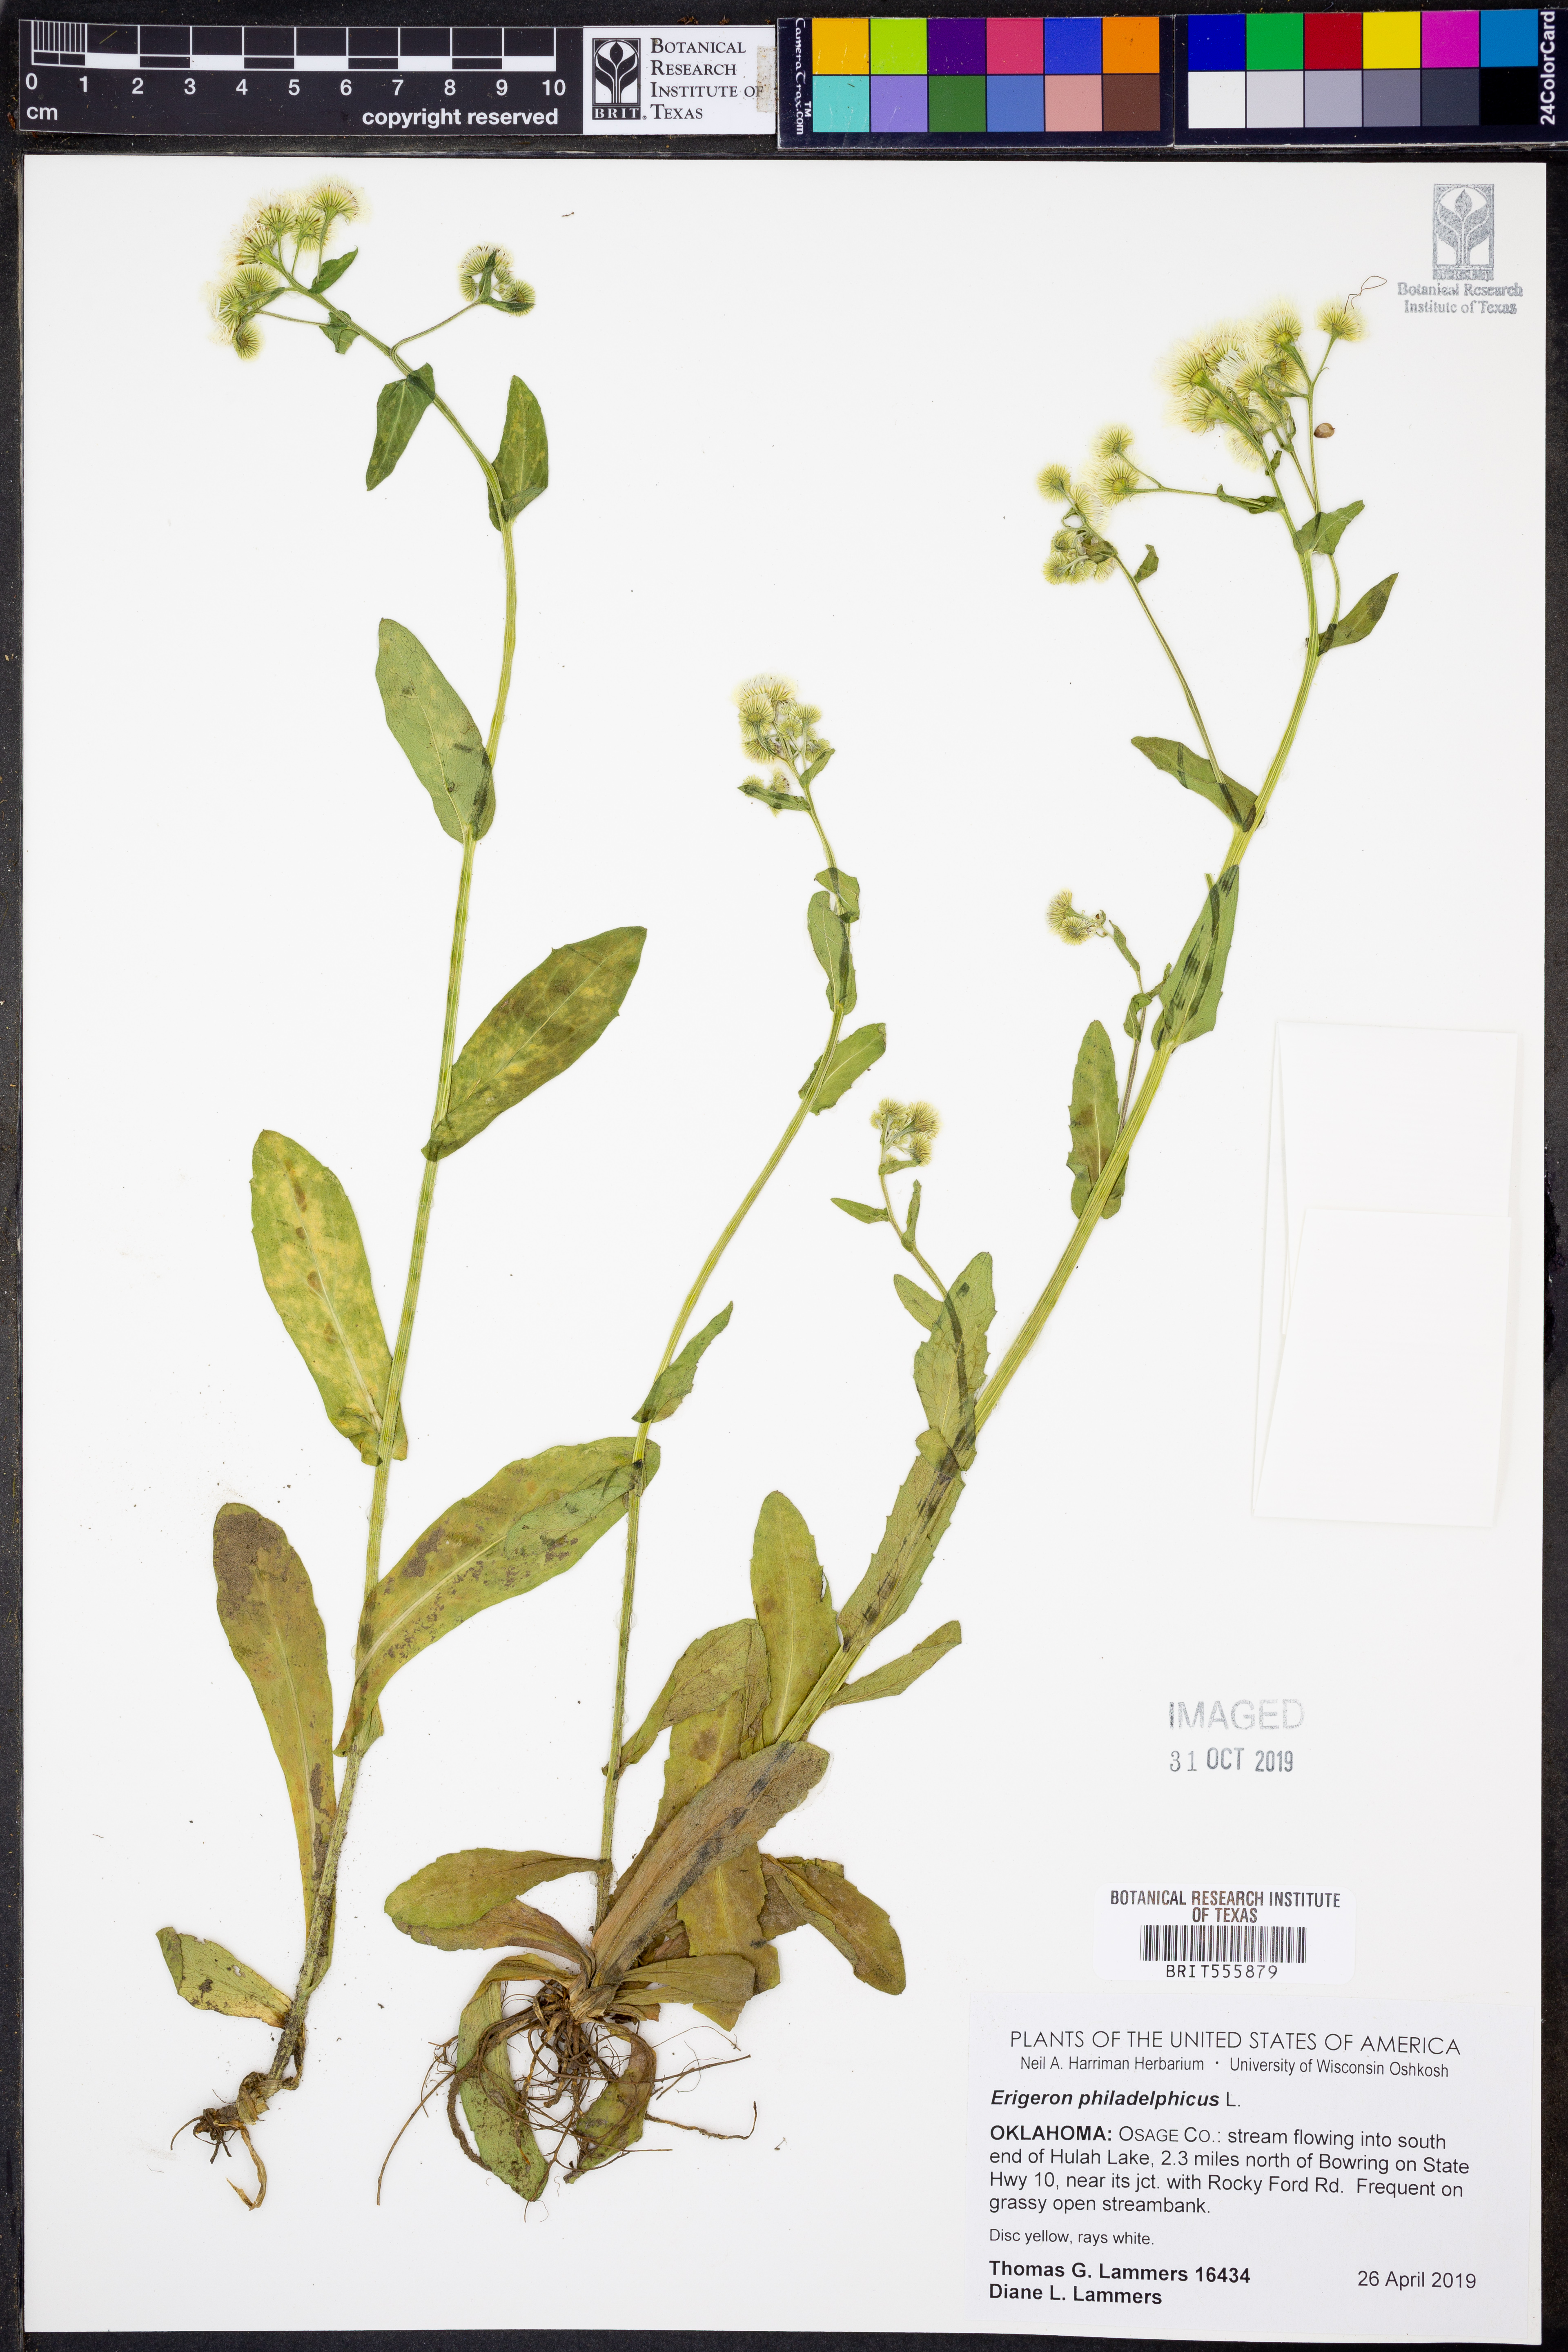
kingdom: Plantae
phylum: Tracheophyta
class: Magnoliopsida
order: Asterales
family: Asteraceae
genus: Erigeron
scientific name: Erigeron philadelphicus
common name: Robin's-plantain
